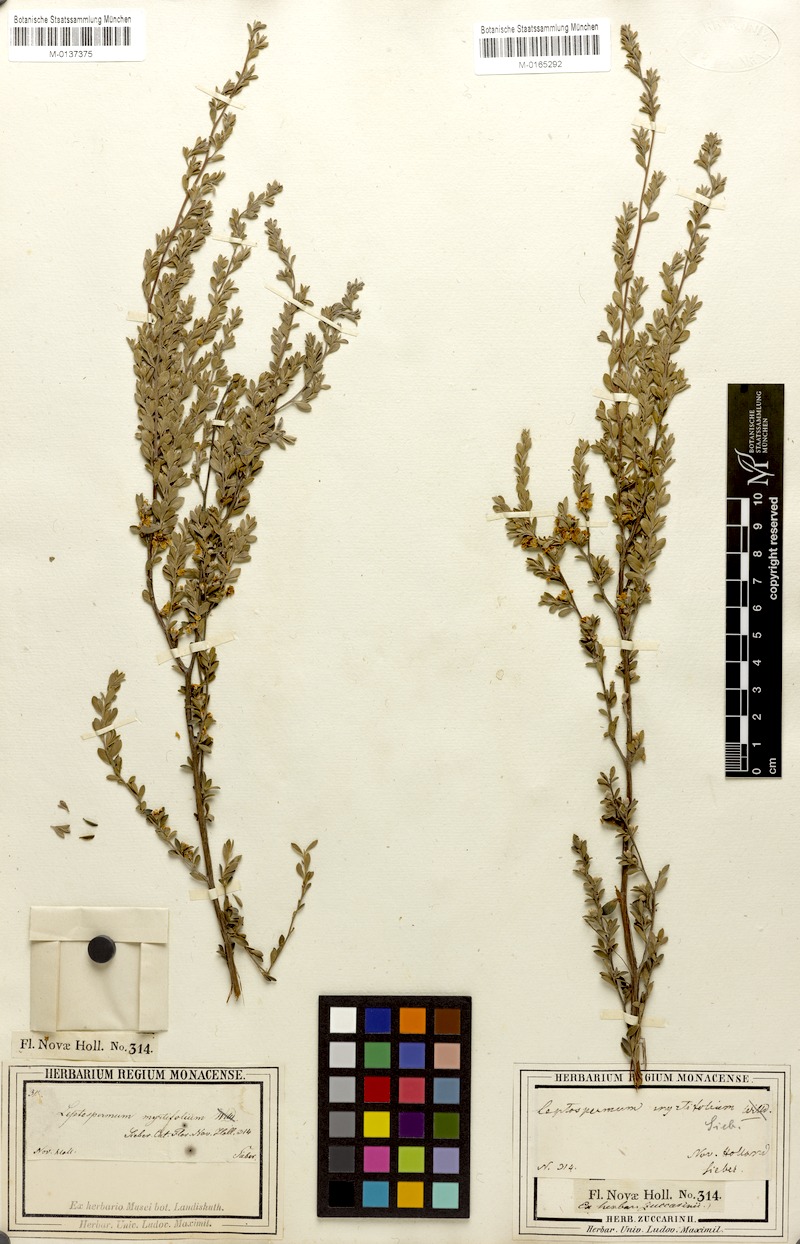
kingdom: Plantae
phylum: Tracheophyta
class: Magnoliopsida
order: Myrtales
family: Myrtaceae
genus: Leptospermum
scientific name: Leptospermum myrtifolium
